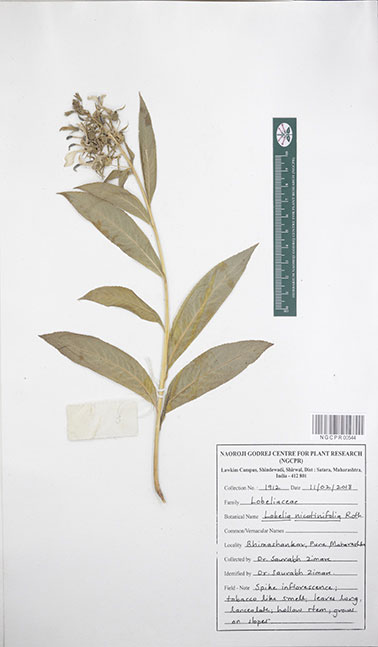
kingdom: Plantae
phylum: Tracheophyta
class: Magnoliopsida
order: Asterales
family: Campanulaceae
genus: Lobelia
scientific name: Lobelia nicotianifolia
